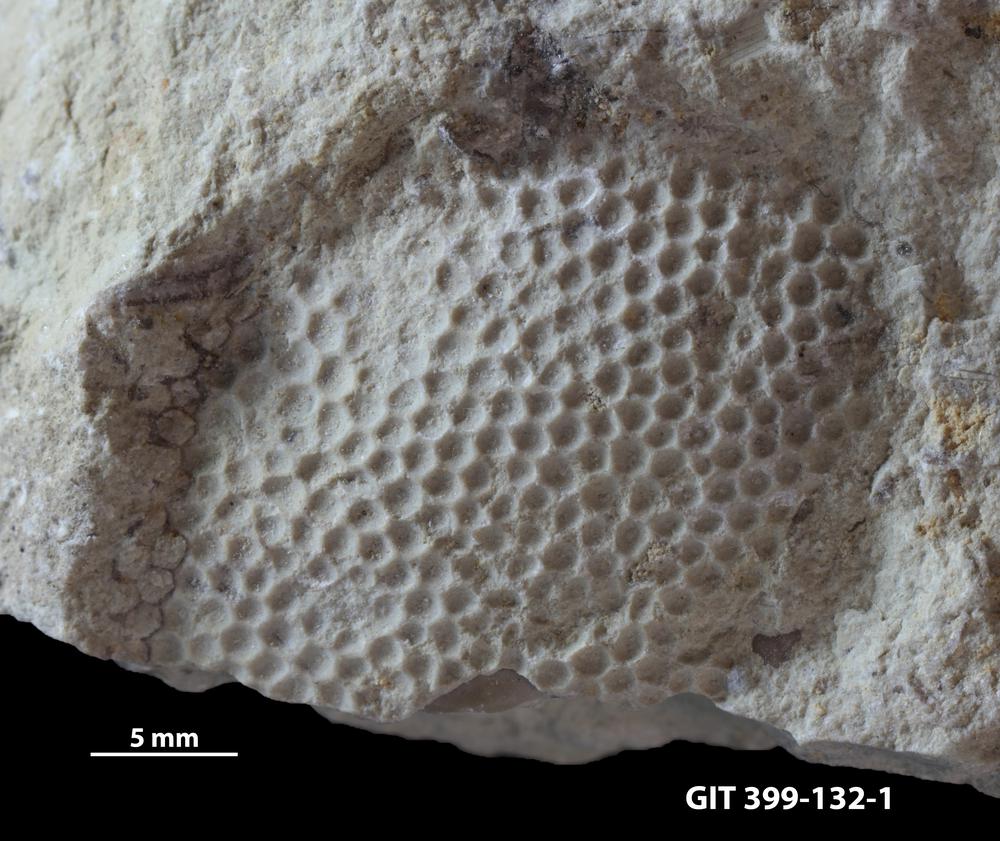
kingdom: Plantae
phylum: Chlorophyta
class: Ulvophyceae
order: Cyclocrinales
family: Cyclocrinaceae
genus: Mastopora
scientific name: Mastopora concava
